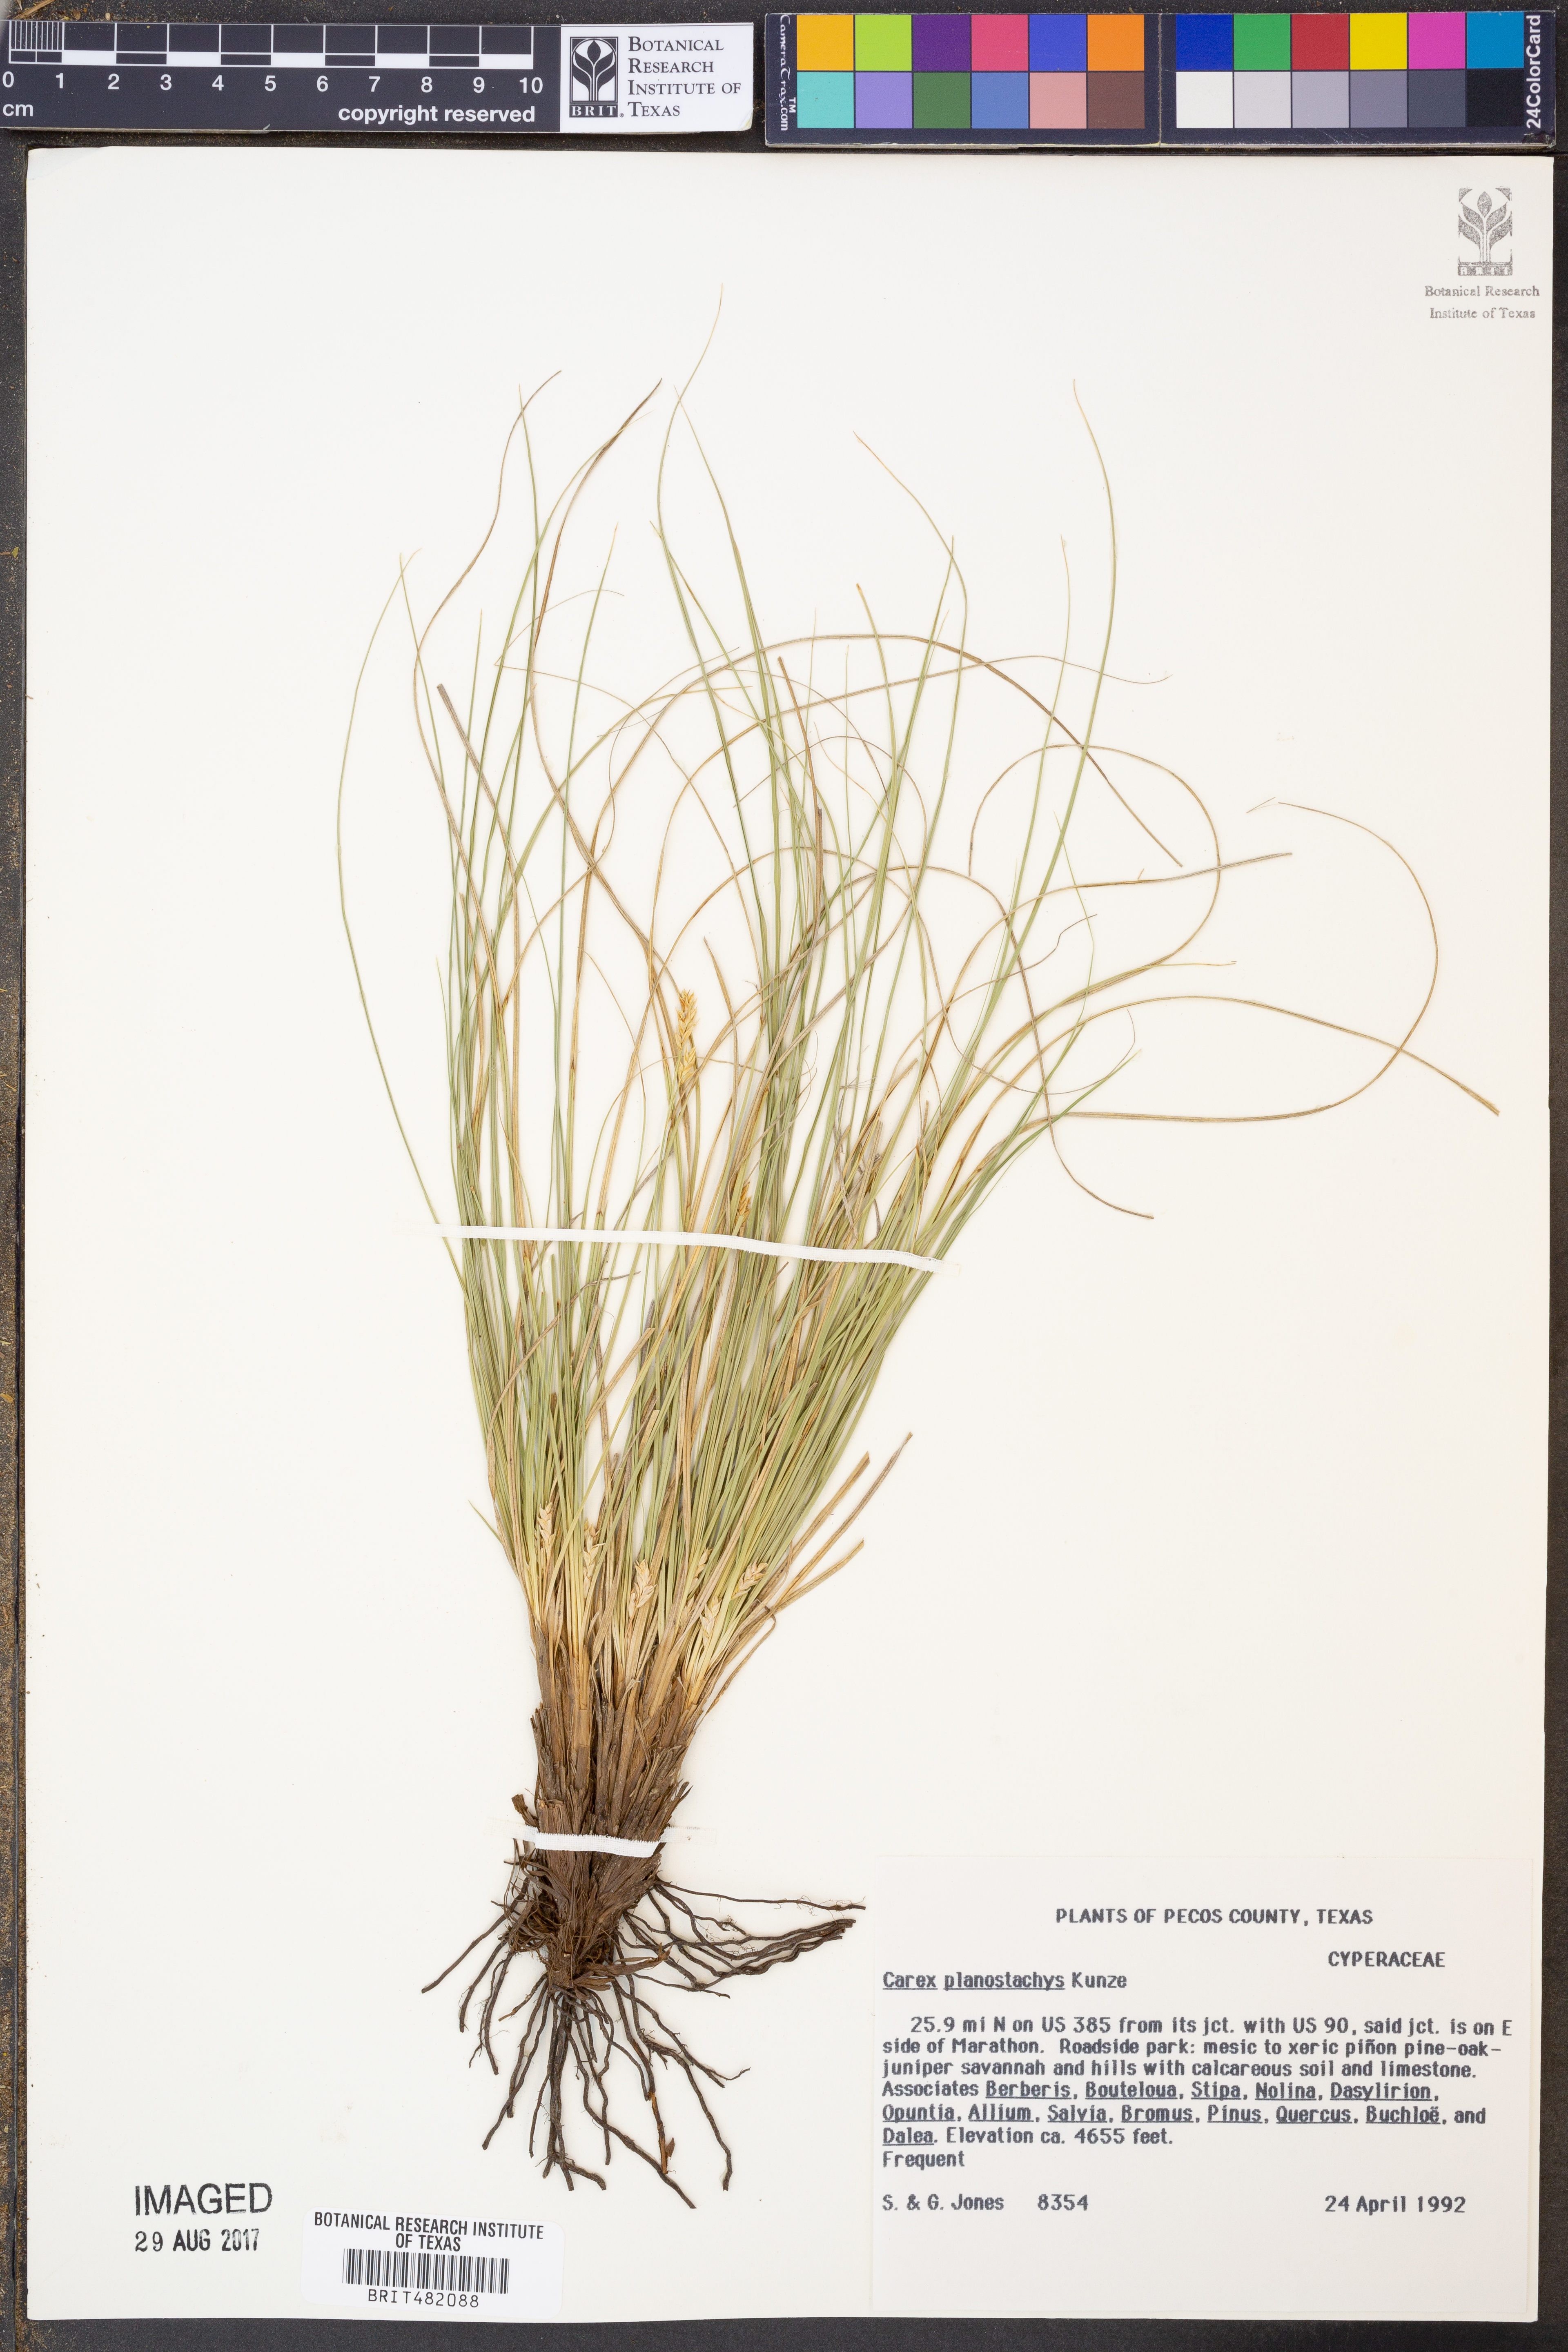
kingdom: Plantae
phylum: Tracheophyta
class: Liliopsida
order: Poales
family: Cyperaceae
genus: Carex
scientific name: Carex planostachys
